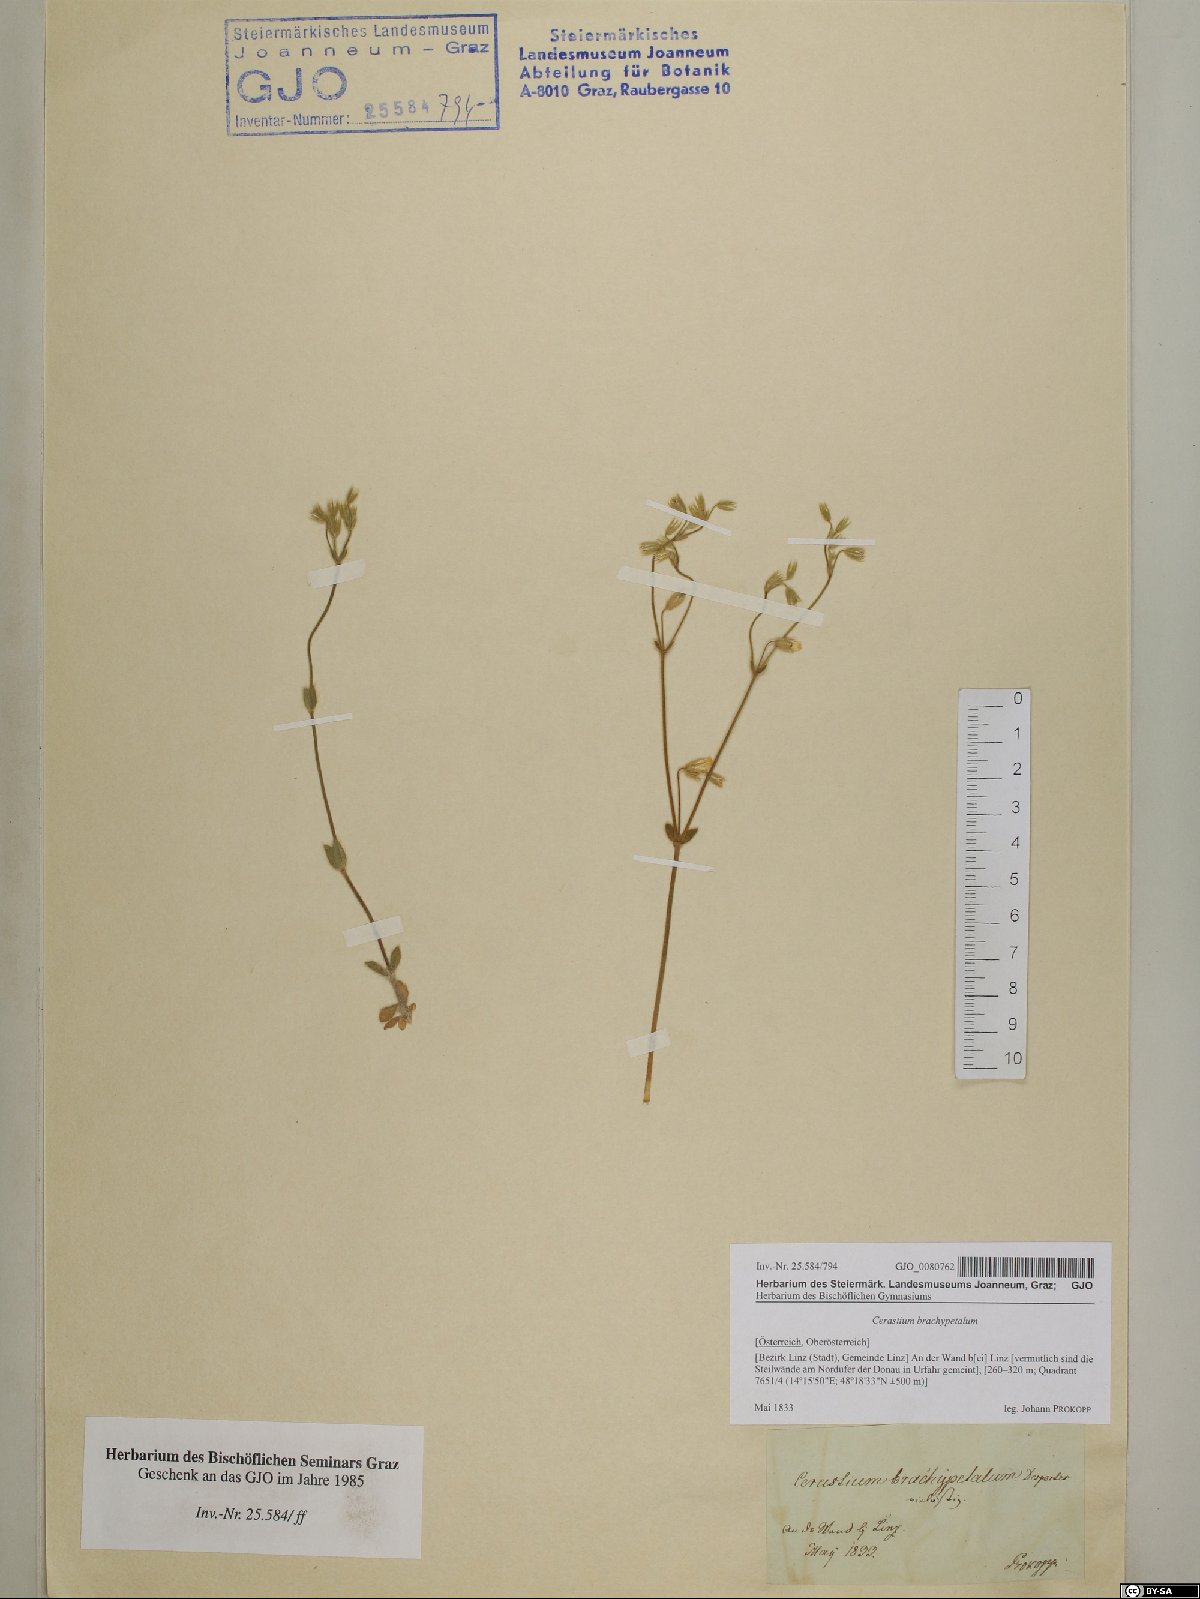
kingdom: Plantae
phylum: Tracheophyta
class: Magnoliopsida
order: Caryophyllales
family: Caryophyllaceae
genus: Cerastium
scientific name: Cerastium brachypetalum
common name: Grey mouse-ear
